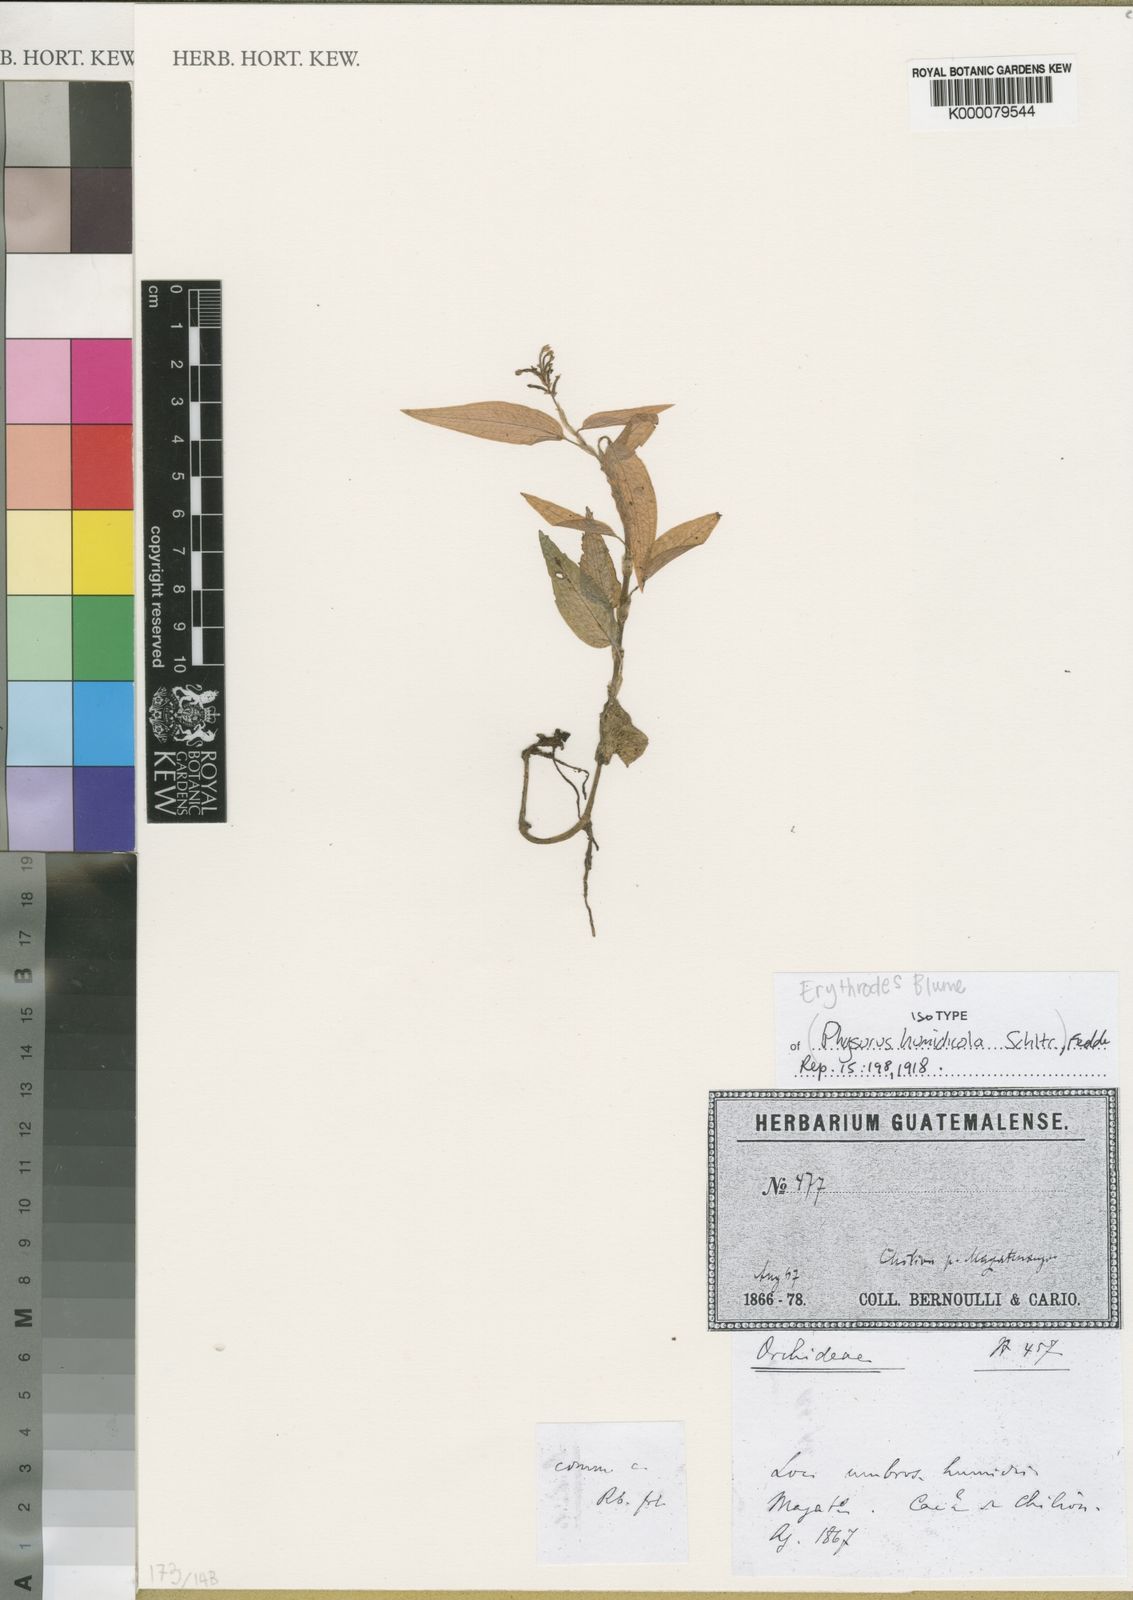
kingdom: Plantae
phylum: Tracheophyta
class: Liliopsida
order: Asparagales
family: Orchidaceae
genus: Aspidogyne
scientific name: Aspidogyne querceticola
